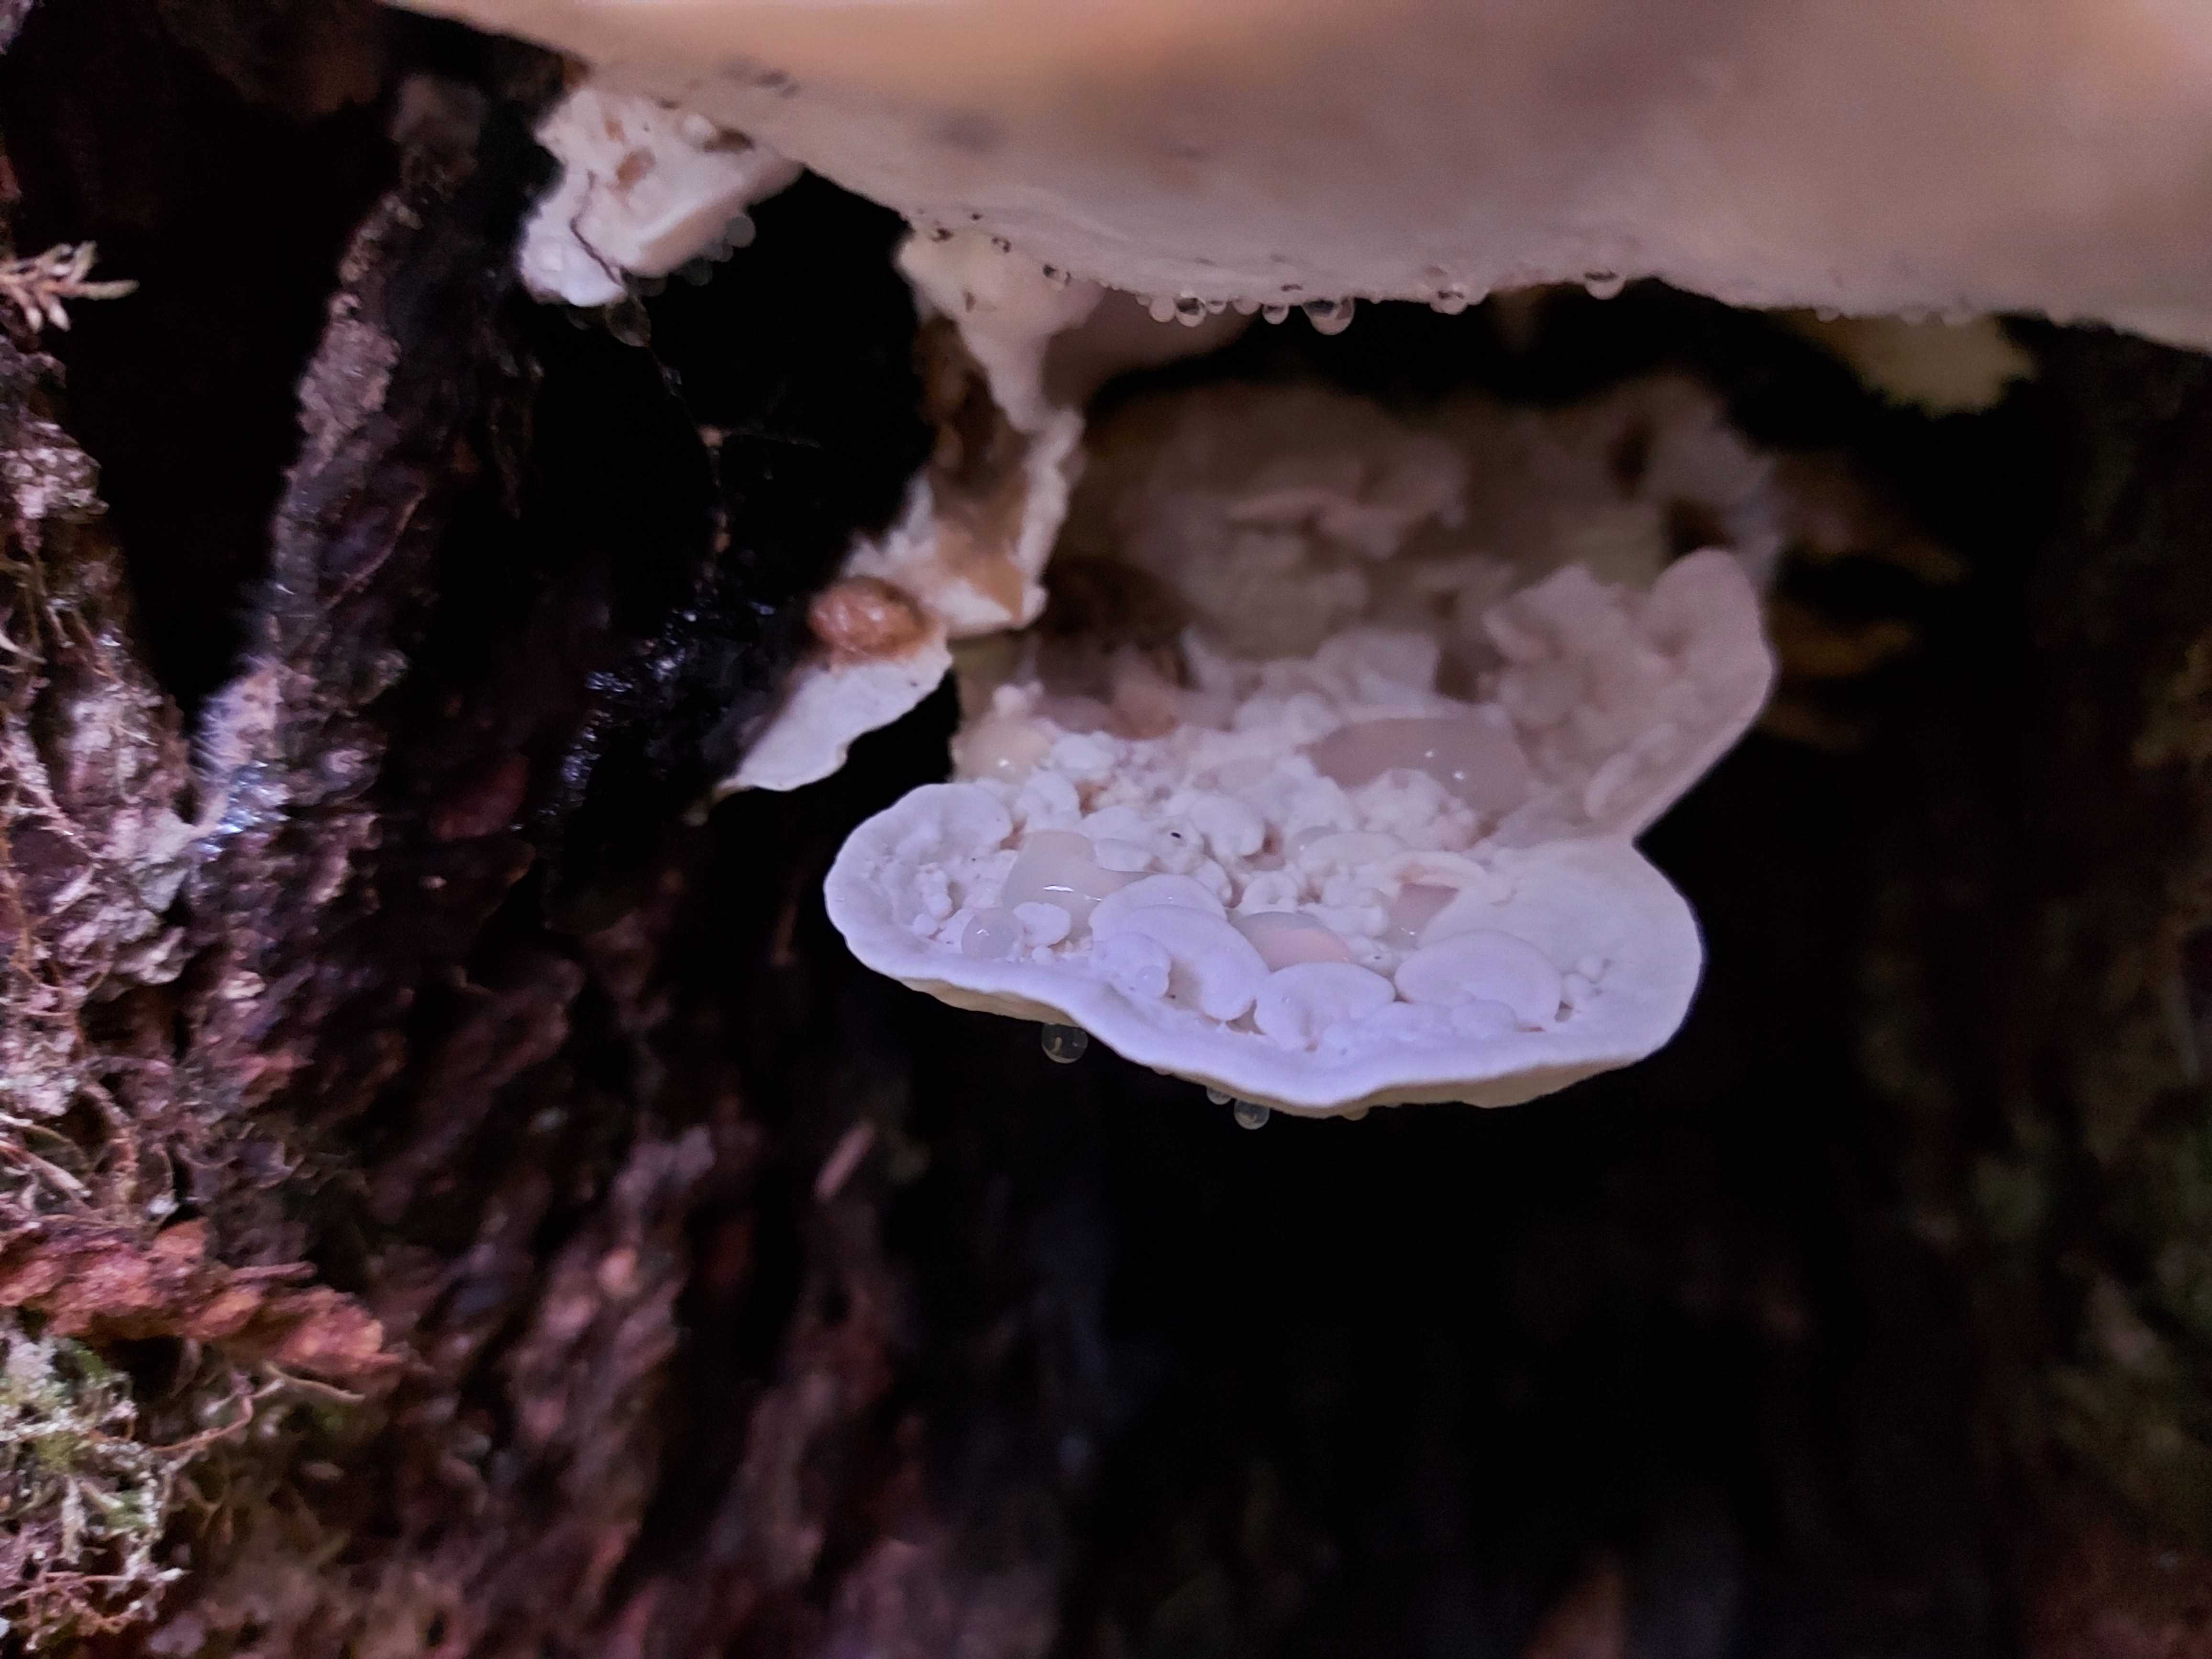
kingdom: Fungi
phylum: Basidiomycota
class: Agaricomycetes
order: Polyporales
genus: Amaropostia
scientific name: Amaropostia stiptica
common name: bitter kødporesvamp
